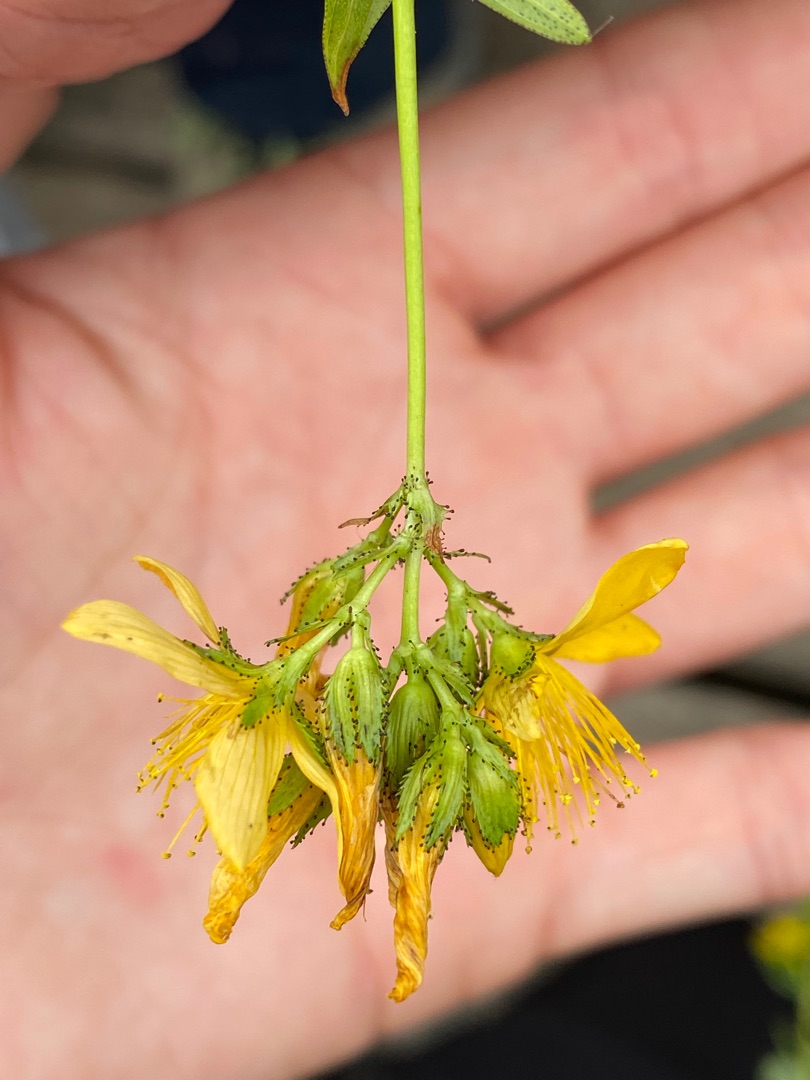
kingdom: Plantae
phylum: Tracheophyta
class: Magnoliopsida
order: Malpighiales
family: Hypericaceae
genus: Hypericum
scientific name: Hypericum montanum
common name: Bjerg-perikon
